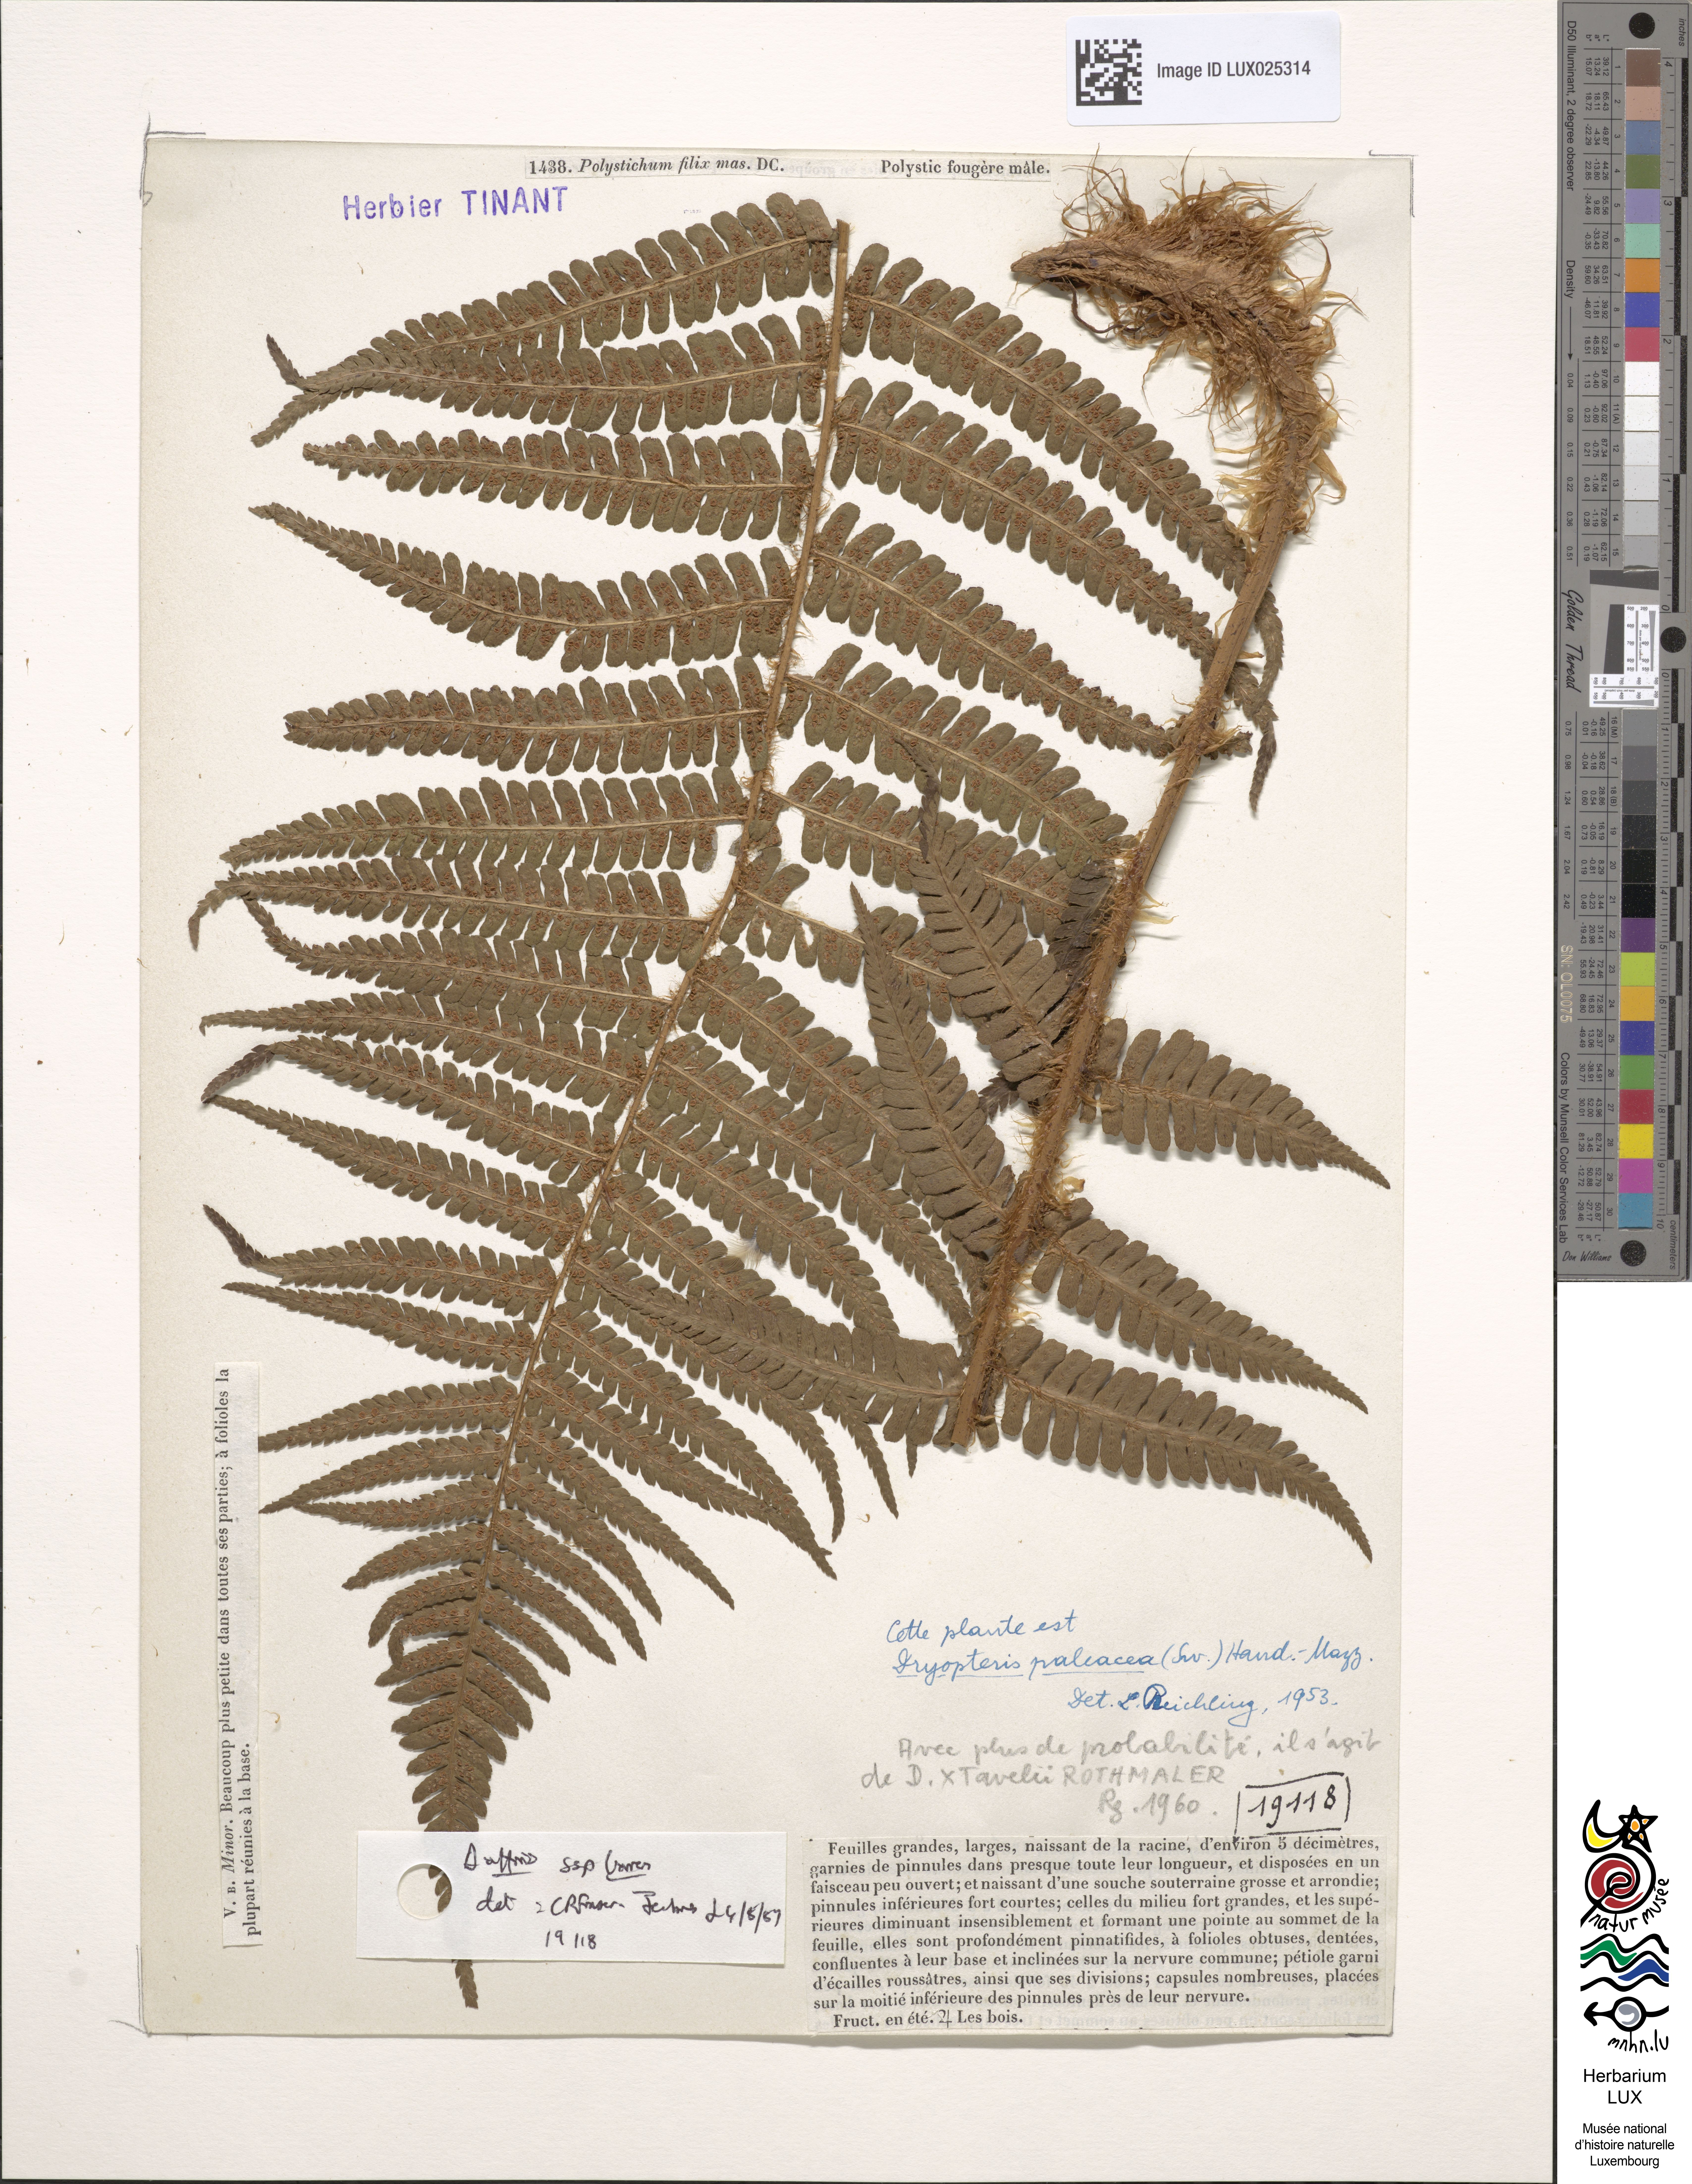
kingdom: Plantae
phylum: Tracheophyta
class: Polypodiopsida
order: Polypodiales
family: Dryopteridaceae
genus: Dryopteris
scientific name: Dryopteris borreri
